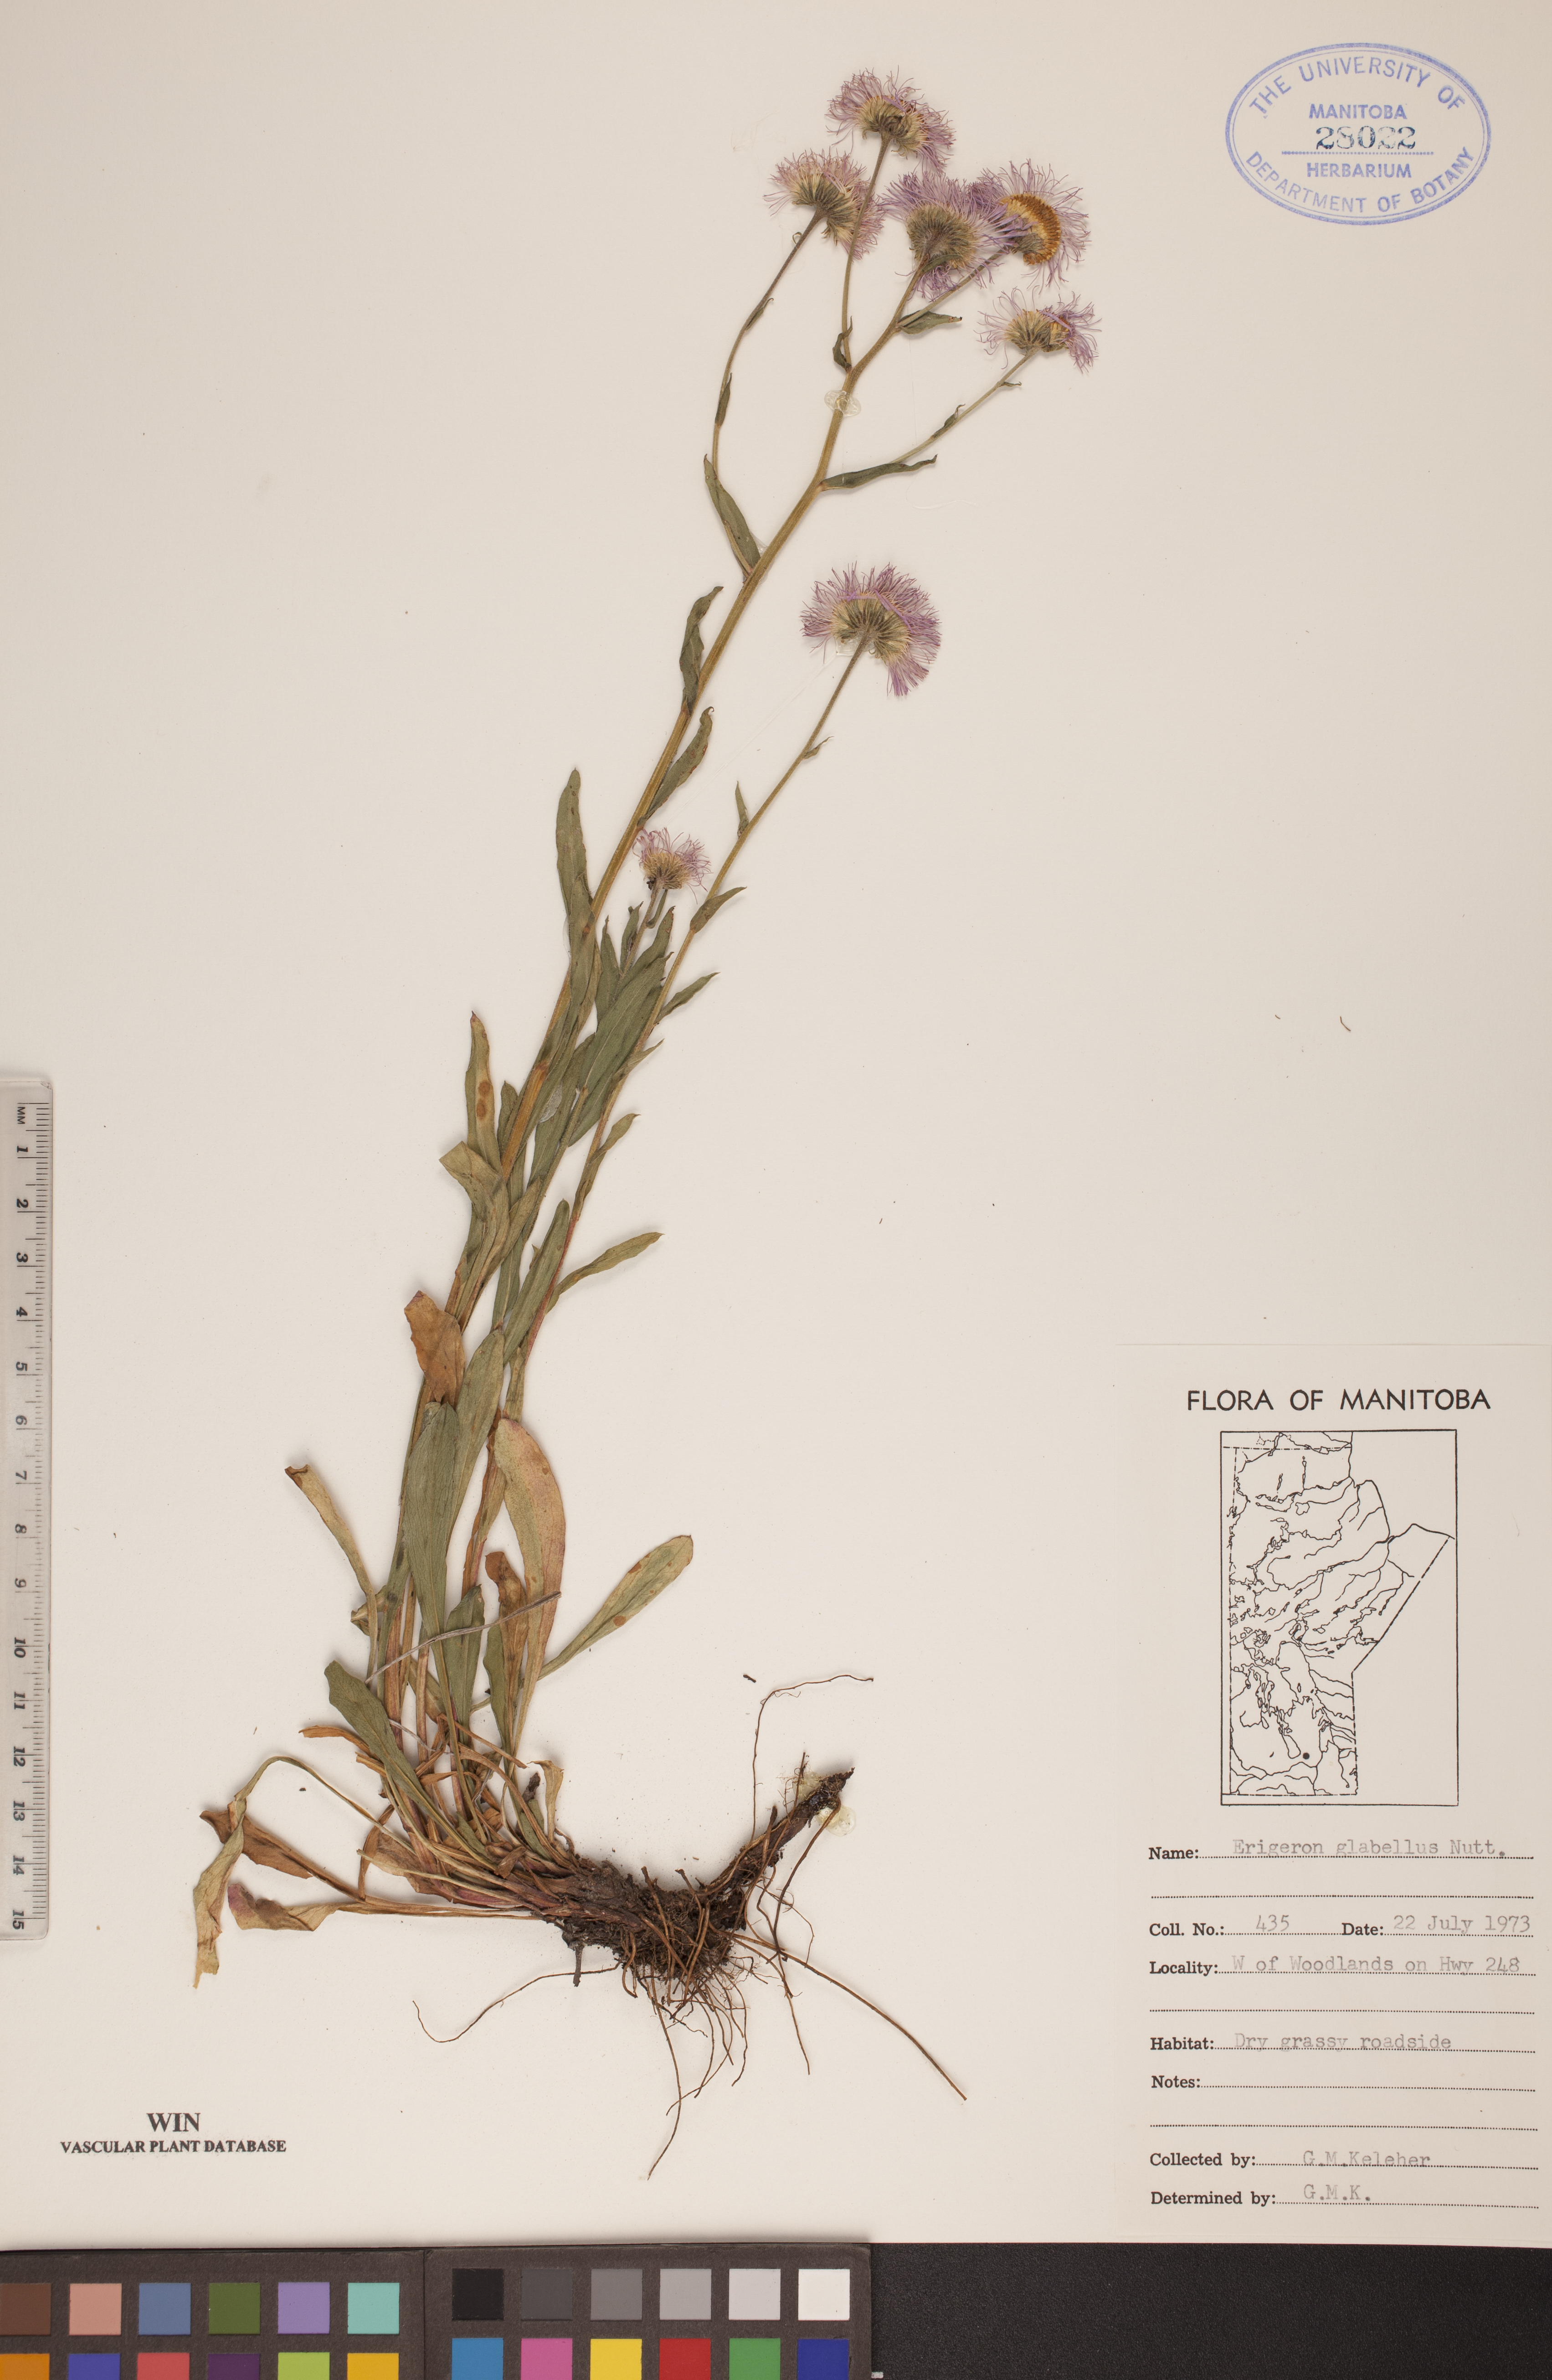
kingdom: Plantae
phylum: Tracheophyta
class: Magnoliopsida
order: Asterales
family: Asteraceae
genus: Erigeron
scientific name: Erigeron glabellus
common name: Smooth fleabane
